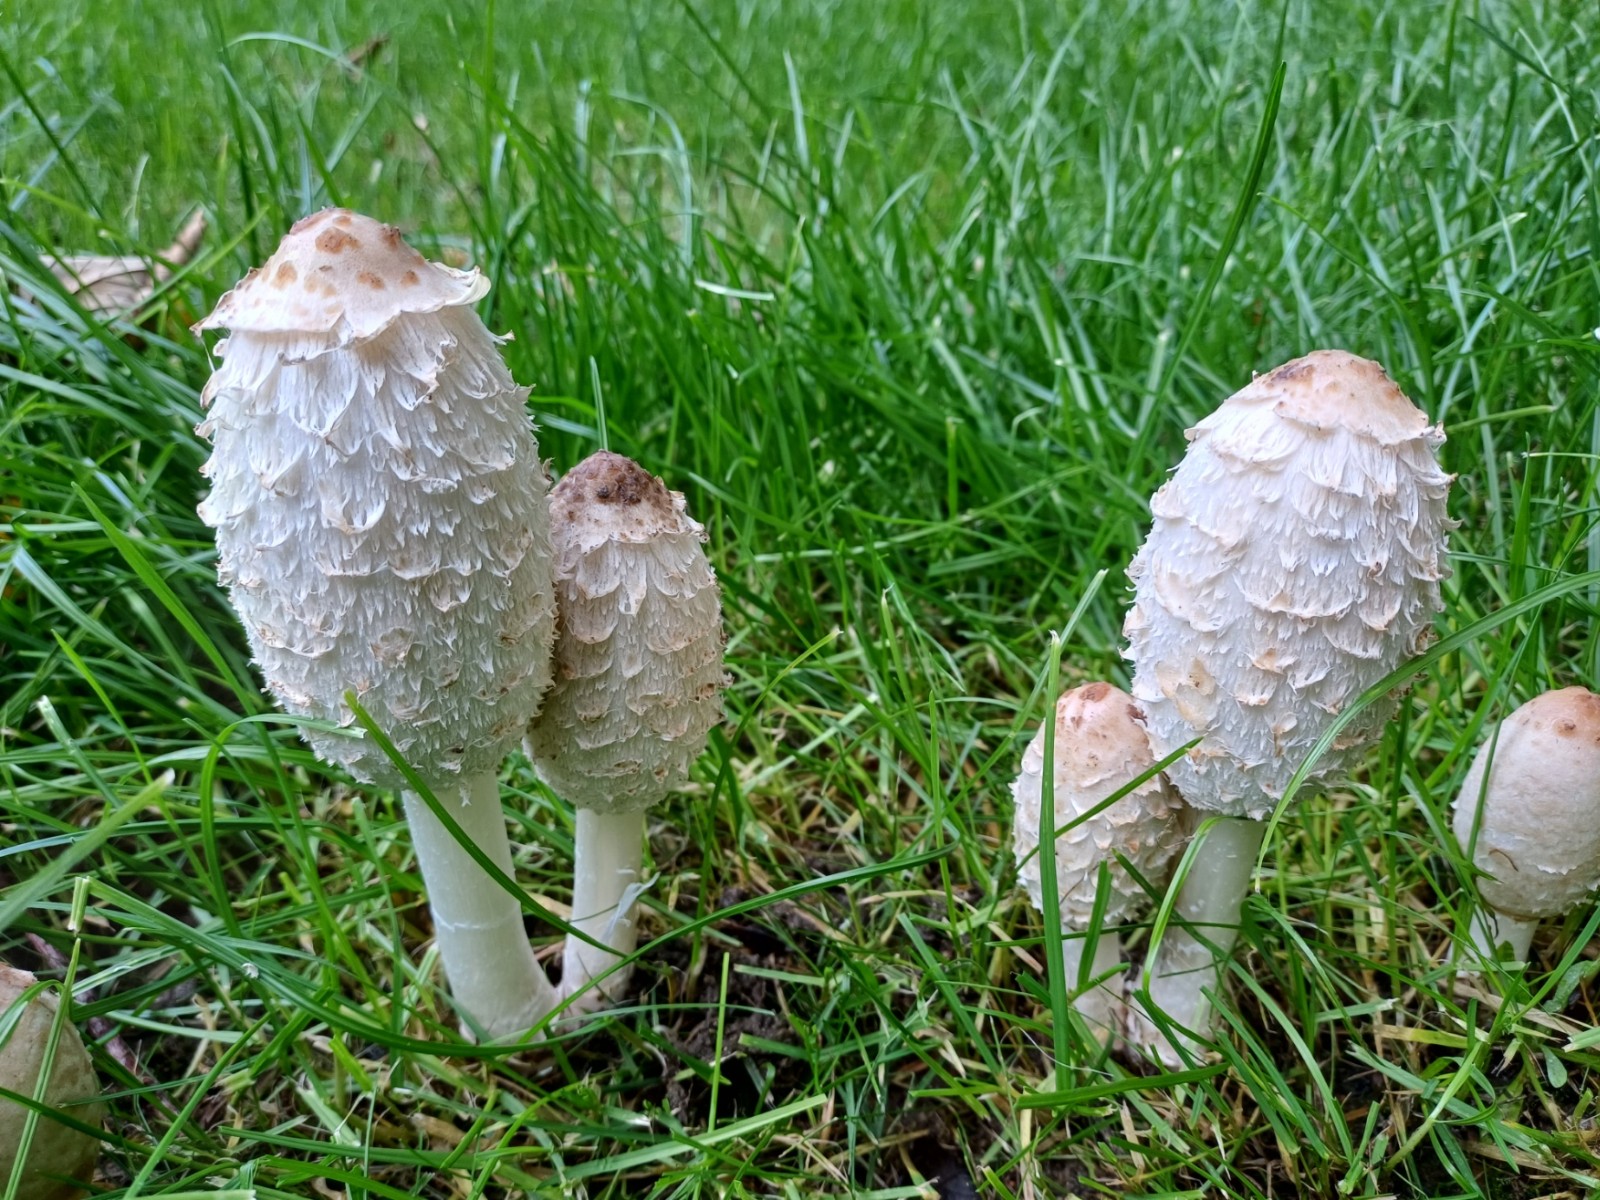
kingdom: Fungi
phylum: Basidiomycota
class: Agaricomycetes
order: Agaricales
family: Agaricaceae
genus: Coprinus
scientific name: Coprinus comatus
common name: stor parykhat
